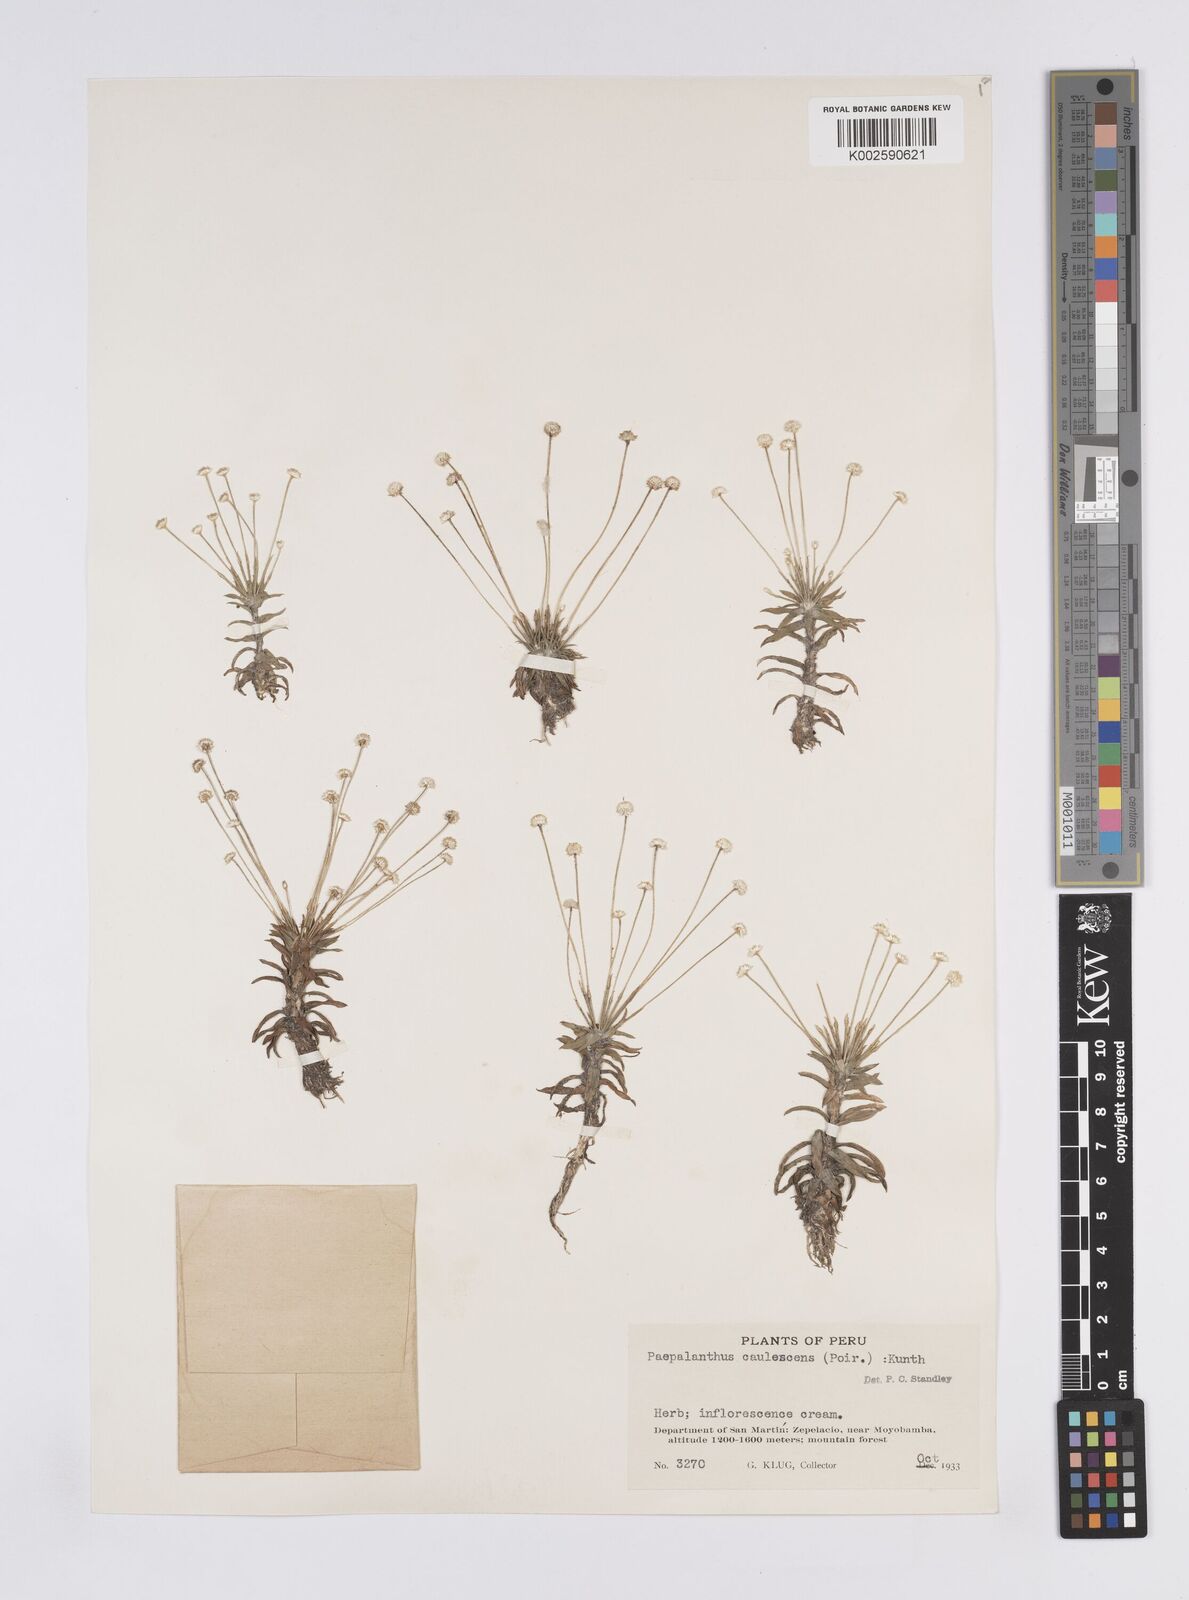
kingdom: Plantae
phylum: Tracheophyta
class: Liliopsida
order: Poales
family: Eriocaulaceae
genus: Syngonanthus
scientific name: Syngonanthus caulescens
